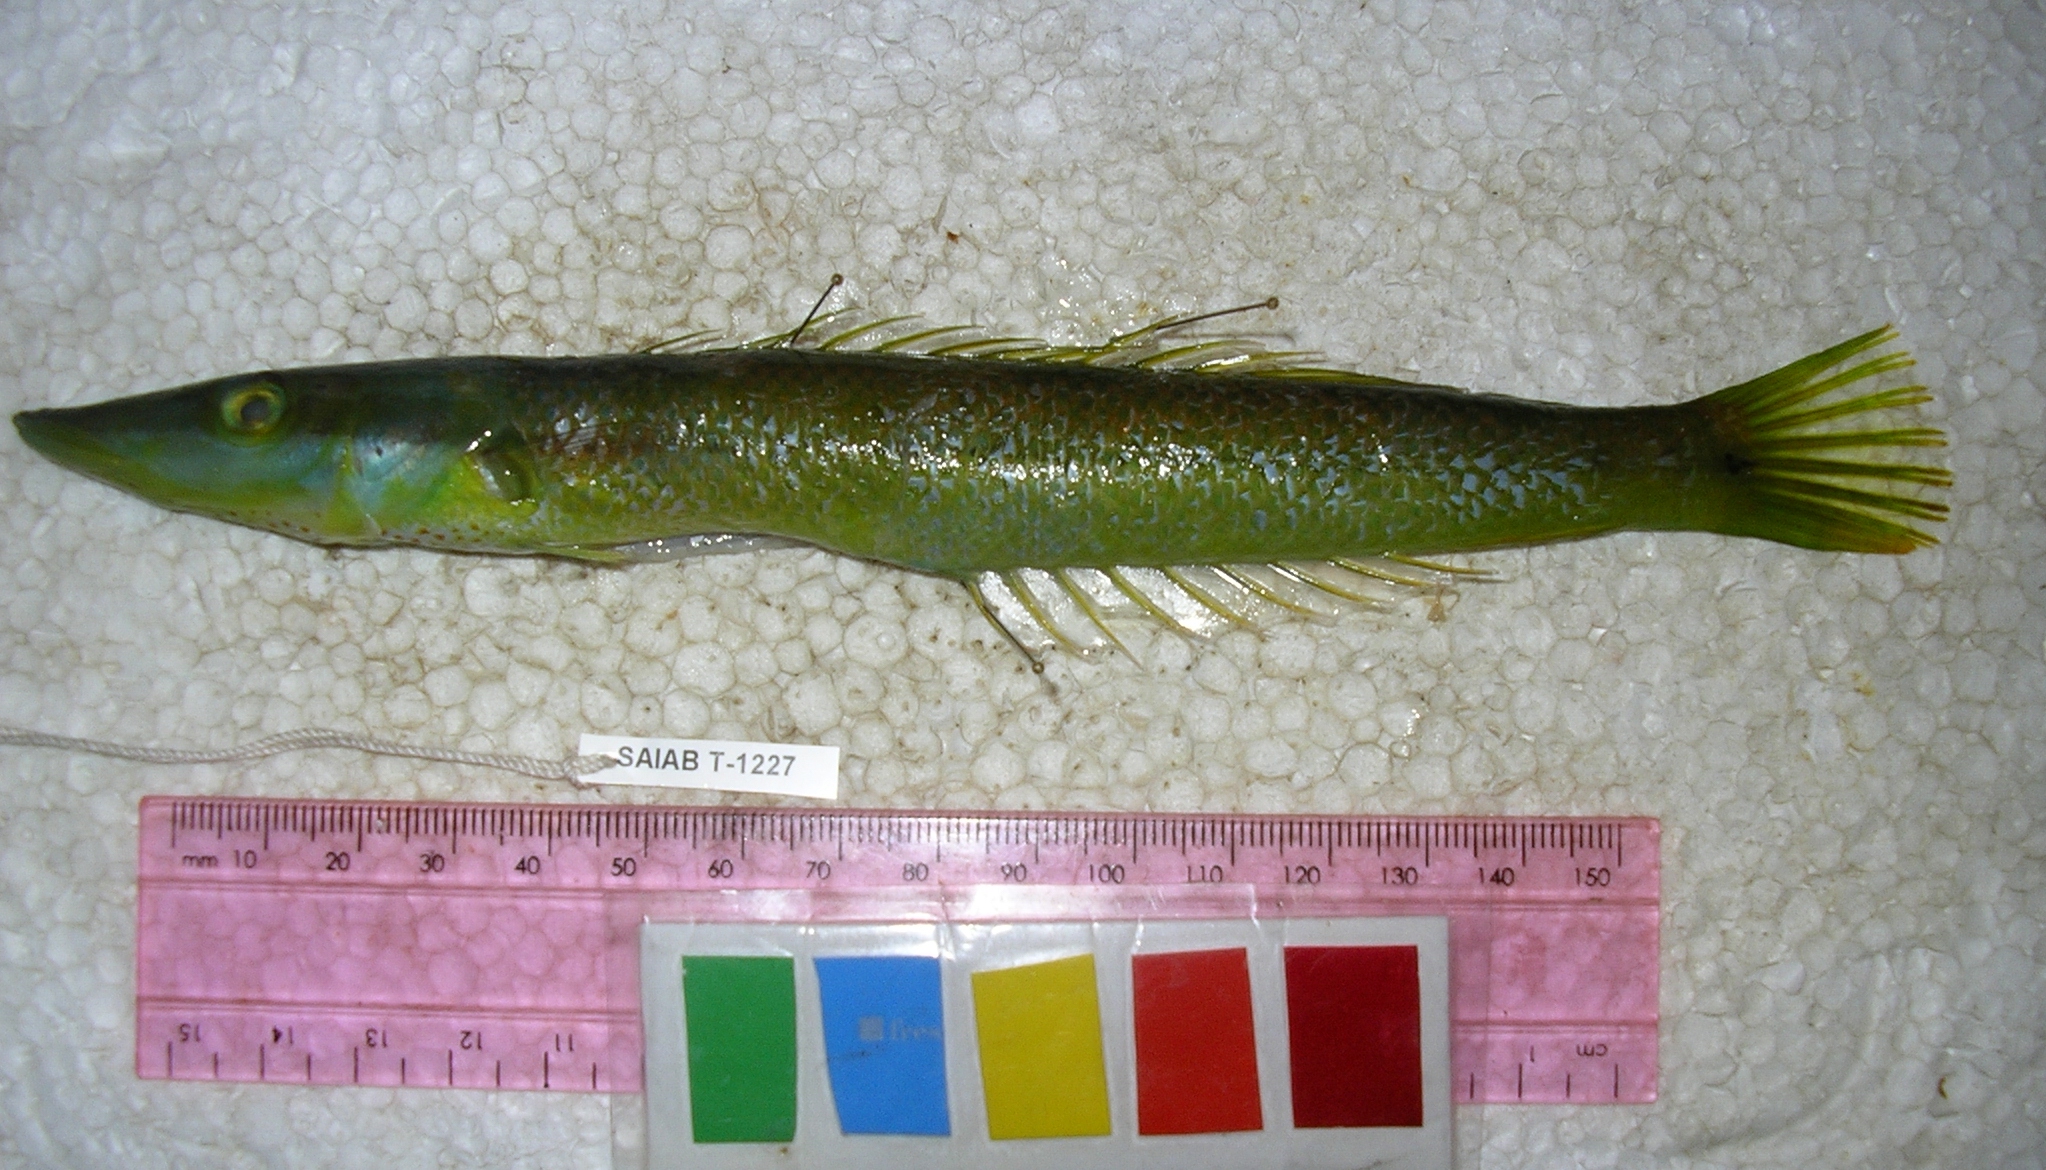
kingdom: Animalia
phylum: Chordata
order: Perciformes
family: Labridae
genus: Cheilio
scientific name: Cheilio inermis
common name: Cigar wrasse
